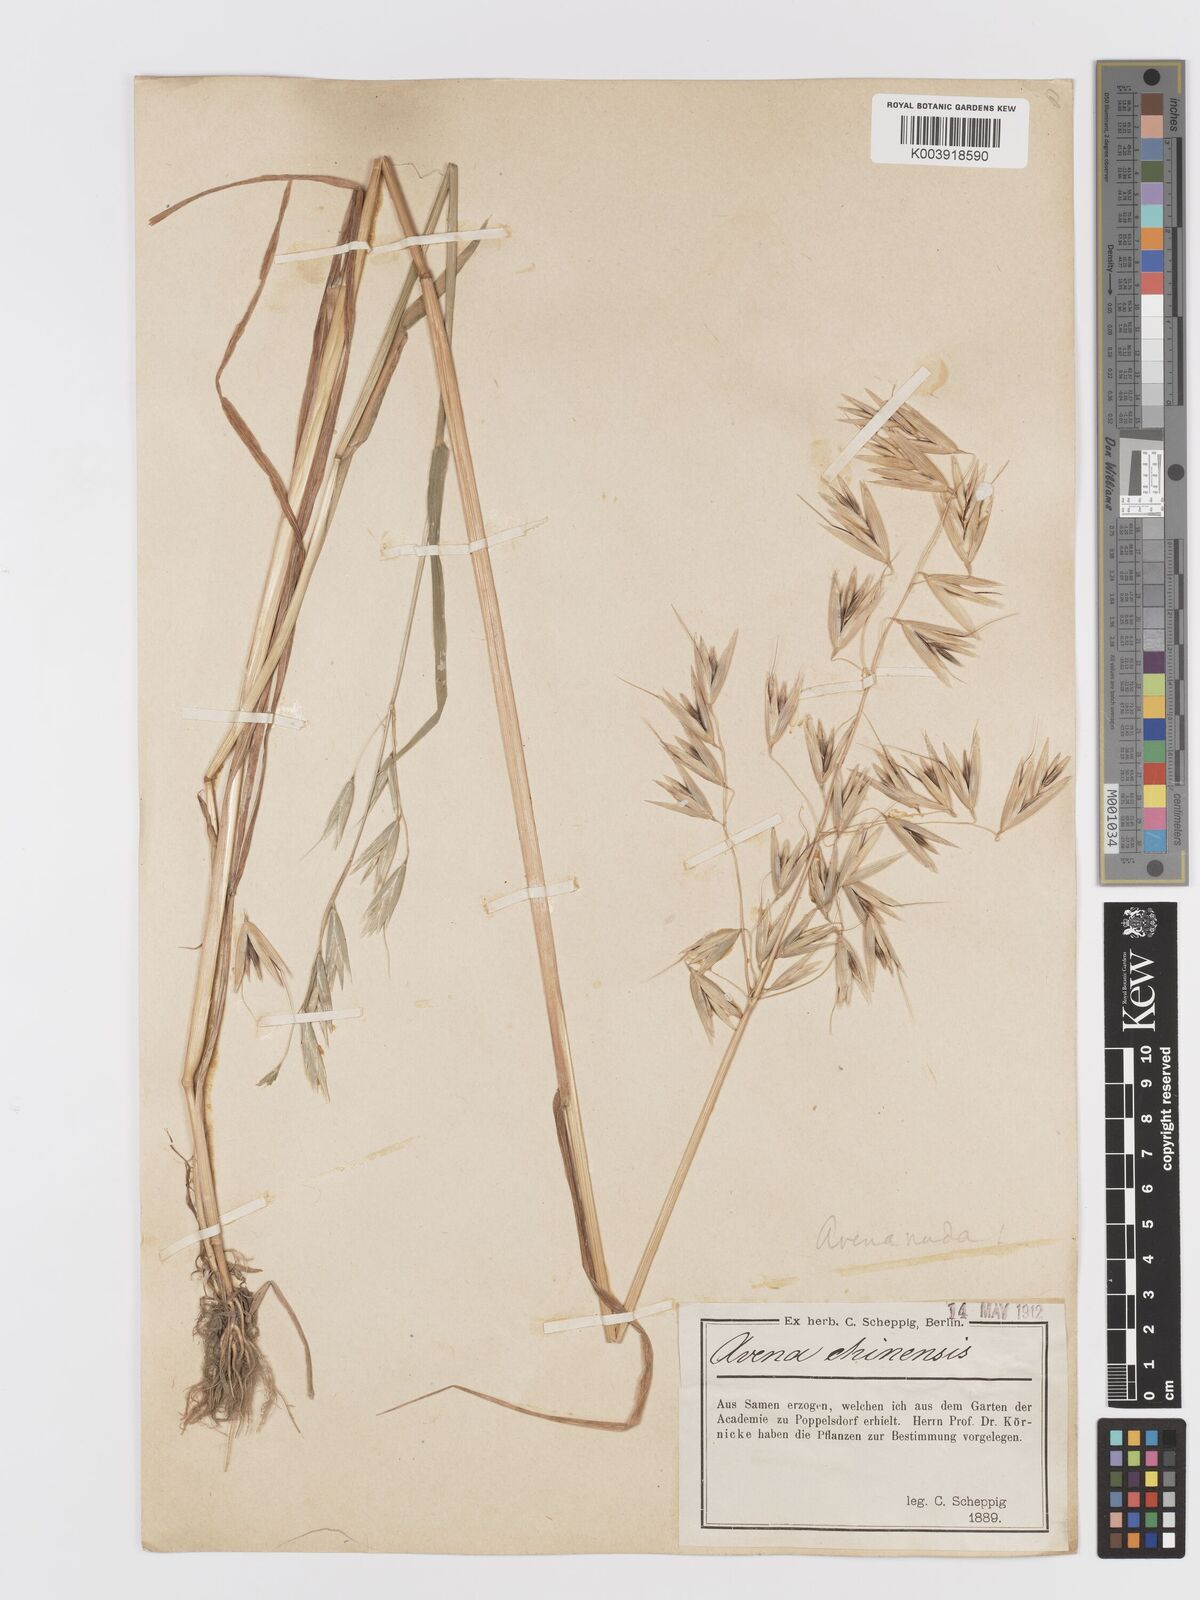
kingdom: Plantae
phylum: Tracheophyta
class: Liliopsida
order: Poales
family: Poaceae
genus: Avena
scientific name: Avena chinensis
